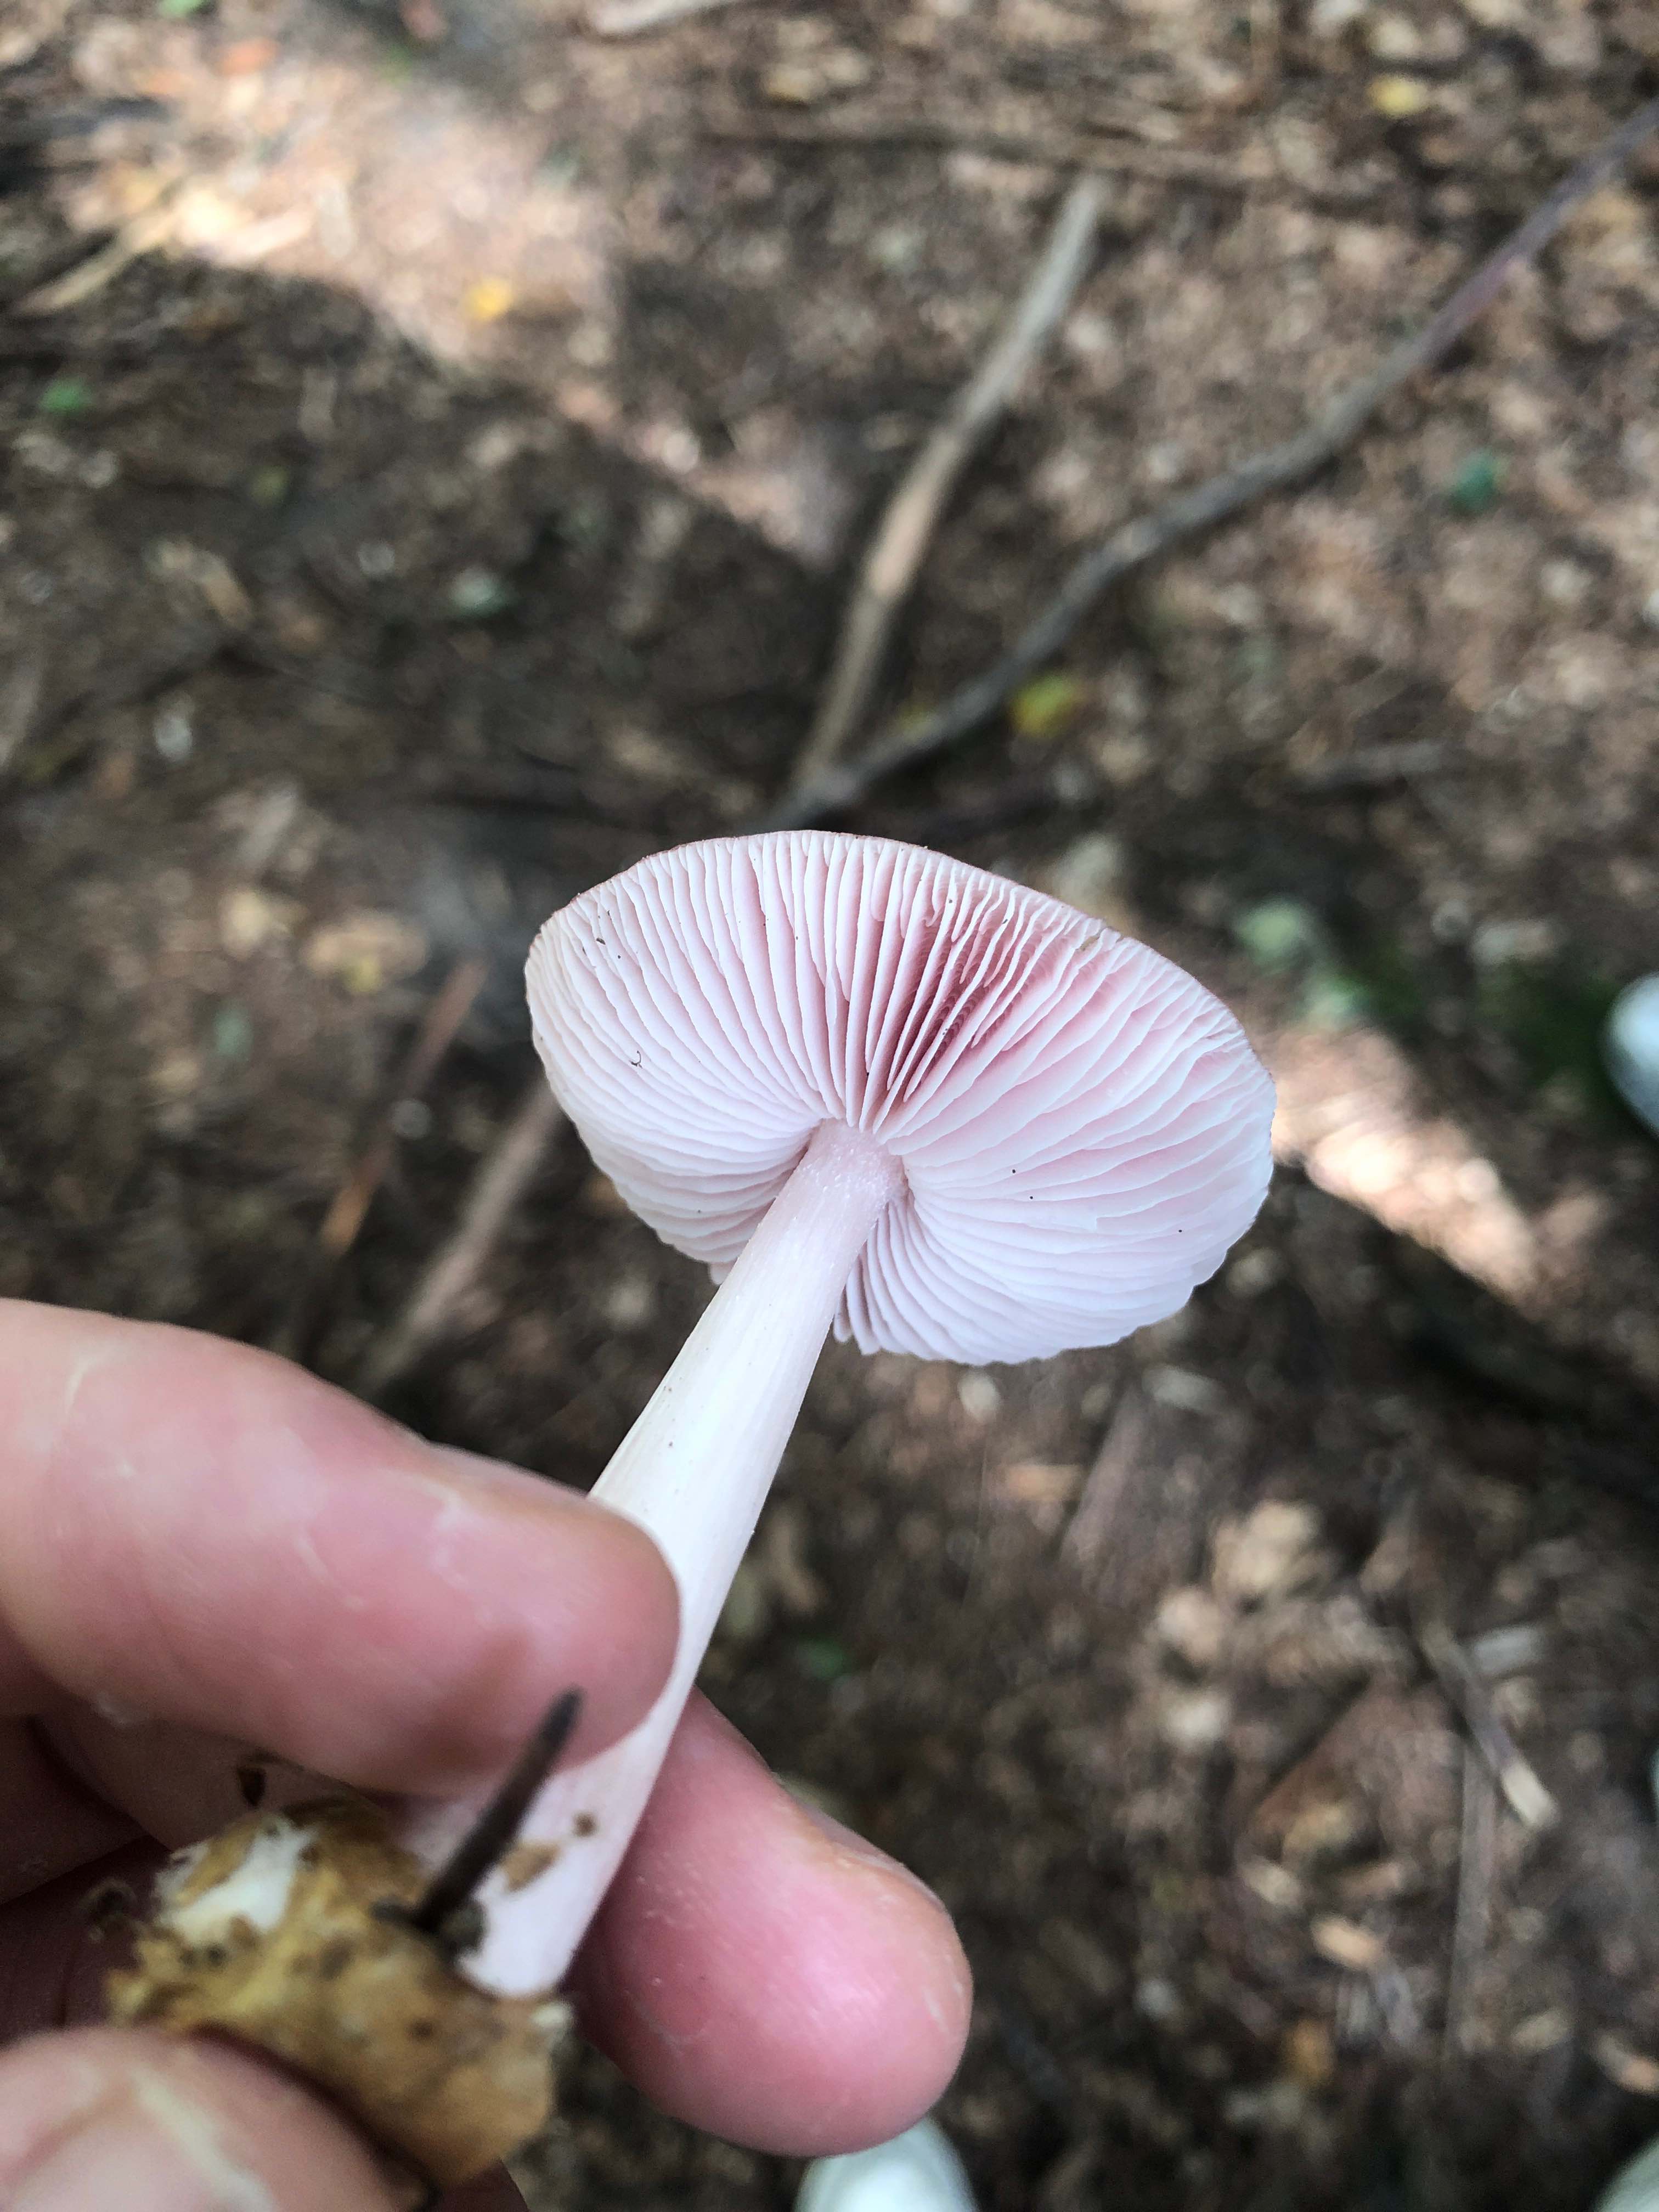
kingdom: Fungi
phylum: Basidiomycota
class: Agaricomycetes
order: Agaricales
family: Mycenaceae
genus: Mycena
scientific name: Mycena rosea
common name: rosa huesvamp
